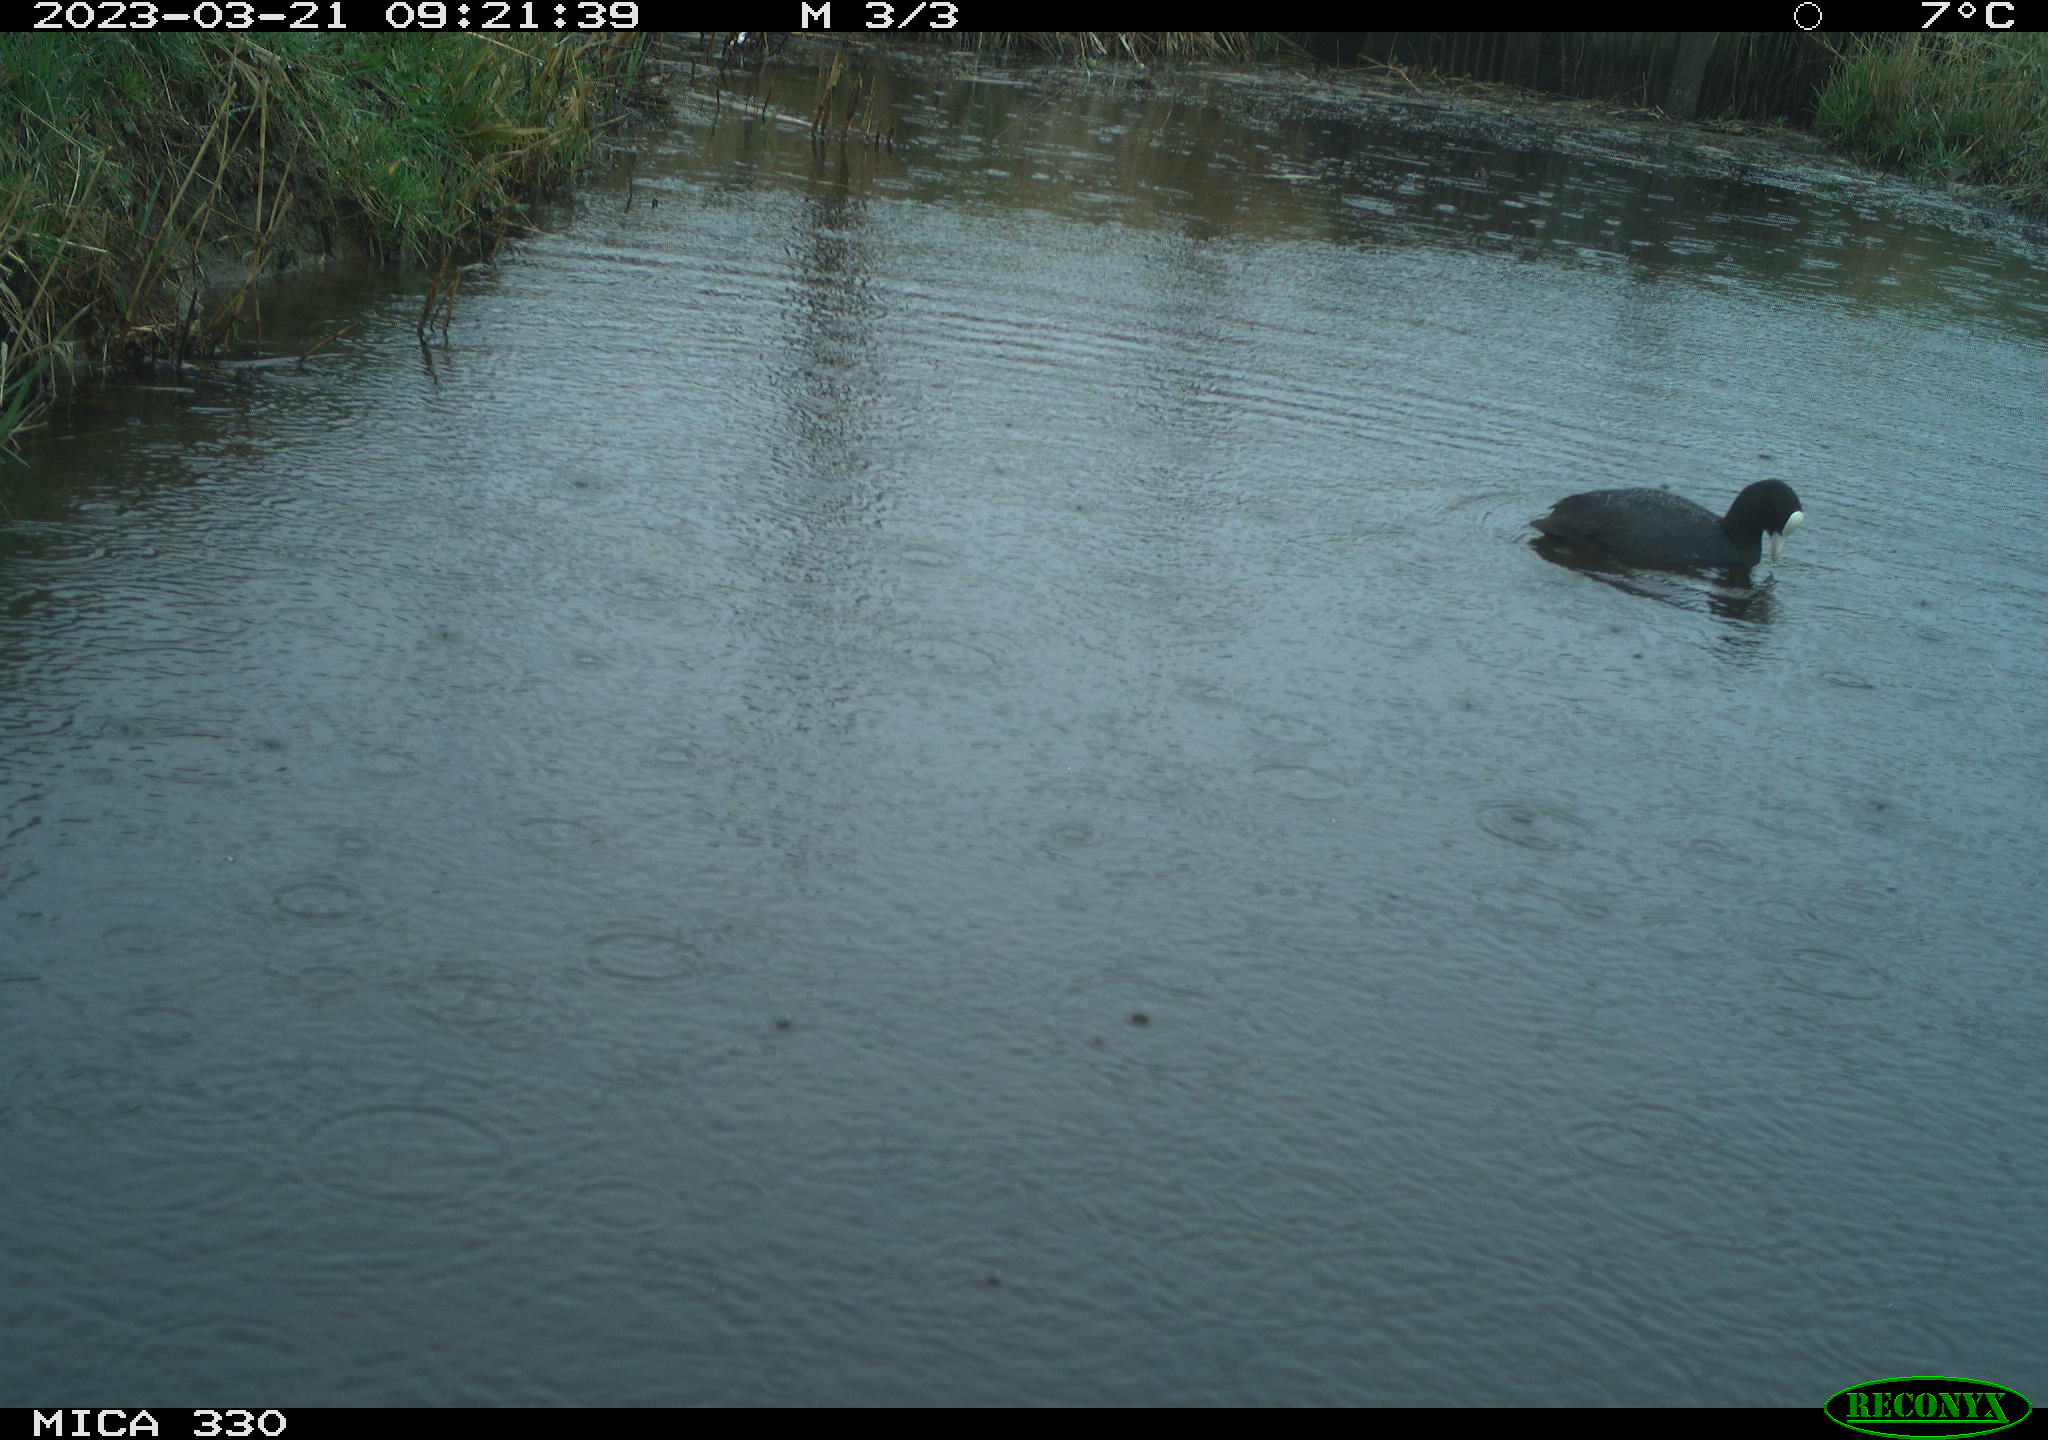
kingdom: Animalia
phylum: Chordata
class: Aves
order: Gruiformes
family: Rallidae
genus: Fulica
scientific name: Fulica atra
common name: Eurasian coot
